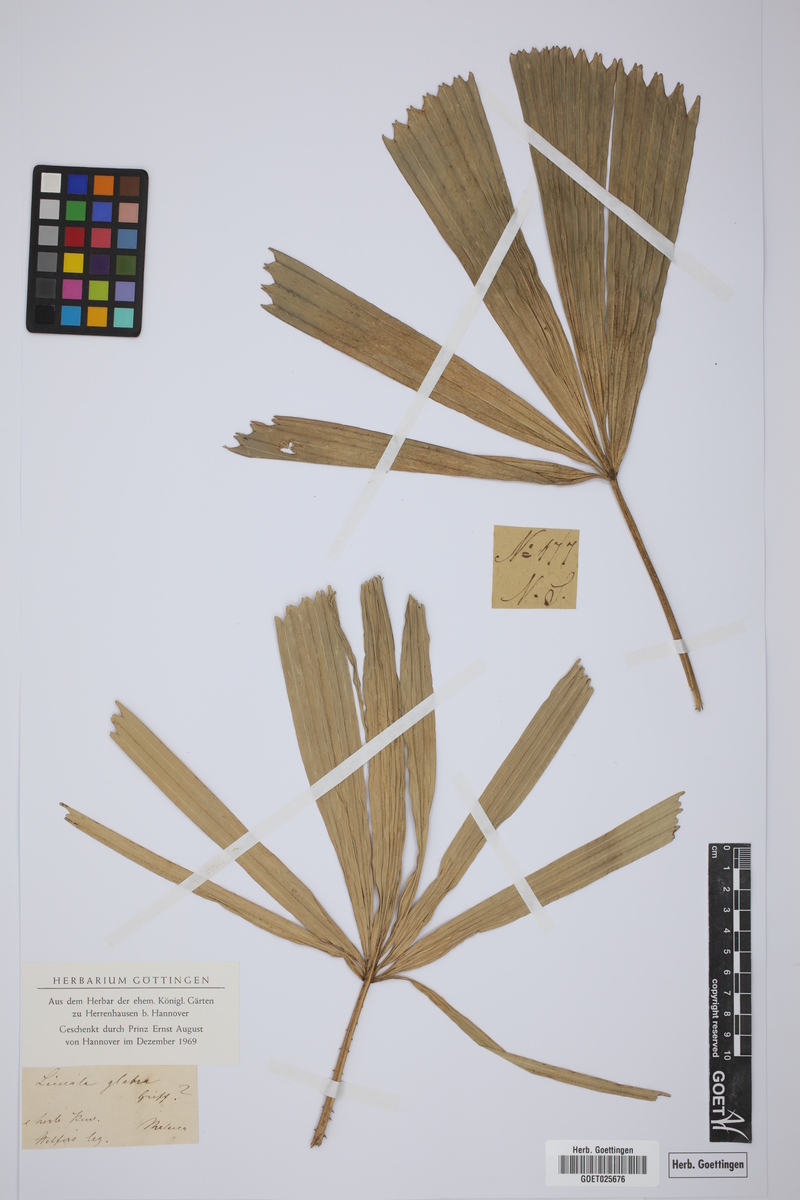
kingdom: Plantae
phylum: Tracheophyta
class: Liliopsida
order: Arecales
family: Arecaceae
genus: Licuala
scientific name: Licuala glabra
